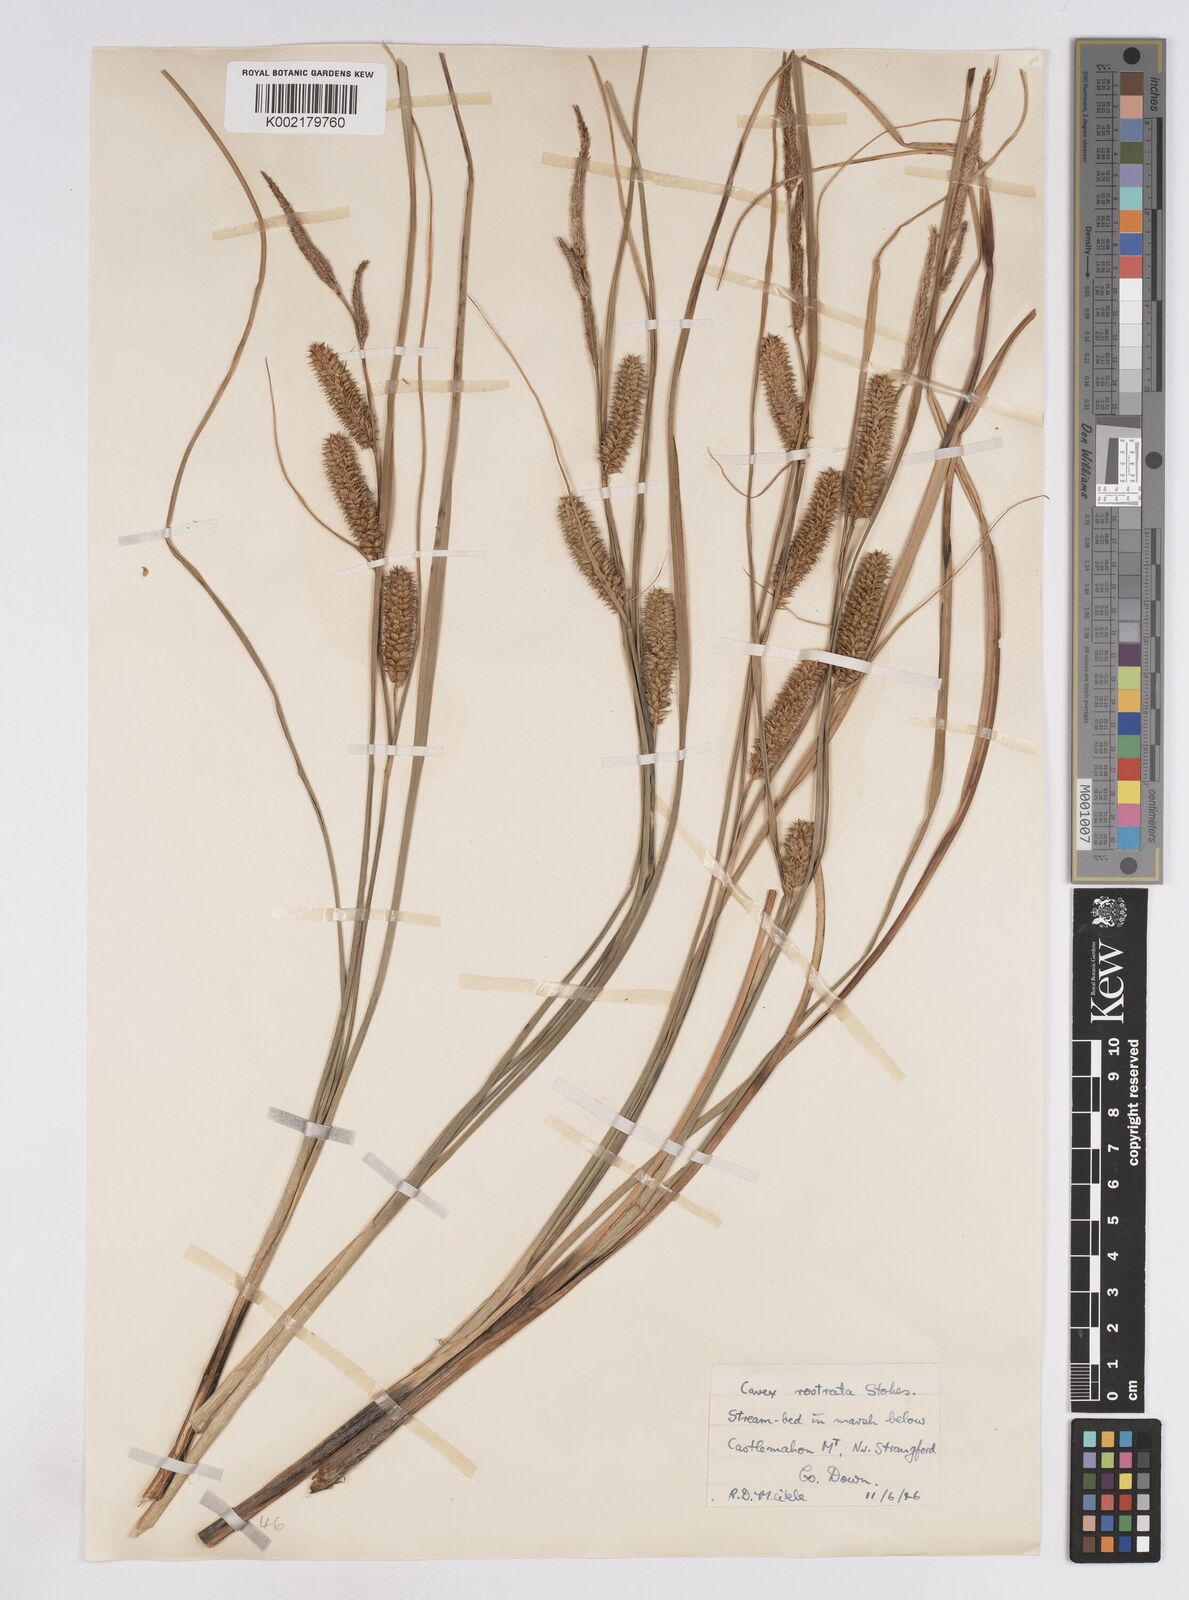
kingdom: Plantae
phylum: Tracheophyta
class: Liliopsida
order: Poales
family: Cyperaceae
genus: Carex
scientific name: Carex rostrata
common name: Bottle sedge
